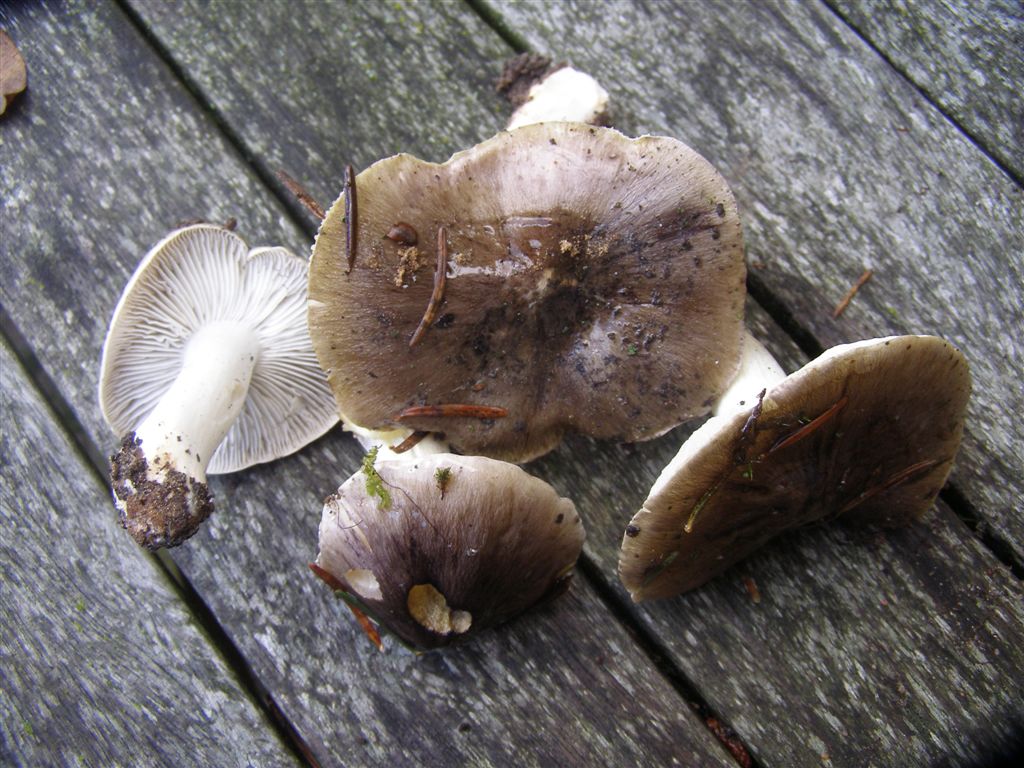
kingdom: Fungi
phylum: Basidiomycota
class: Agaricomycetes
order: Agaricales
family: Tricholomataceae
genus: Tricholoma
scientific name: Tricholoma portentosum
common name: grå ridderhat
